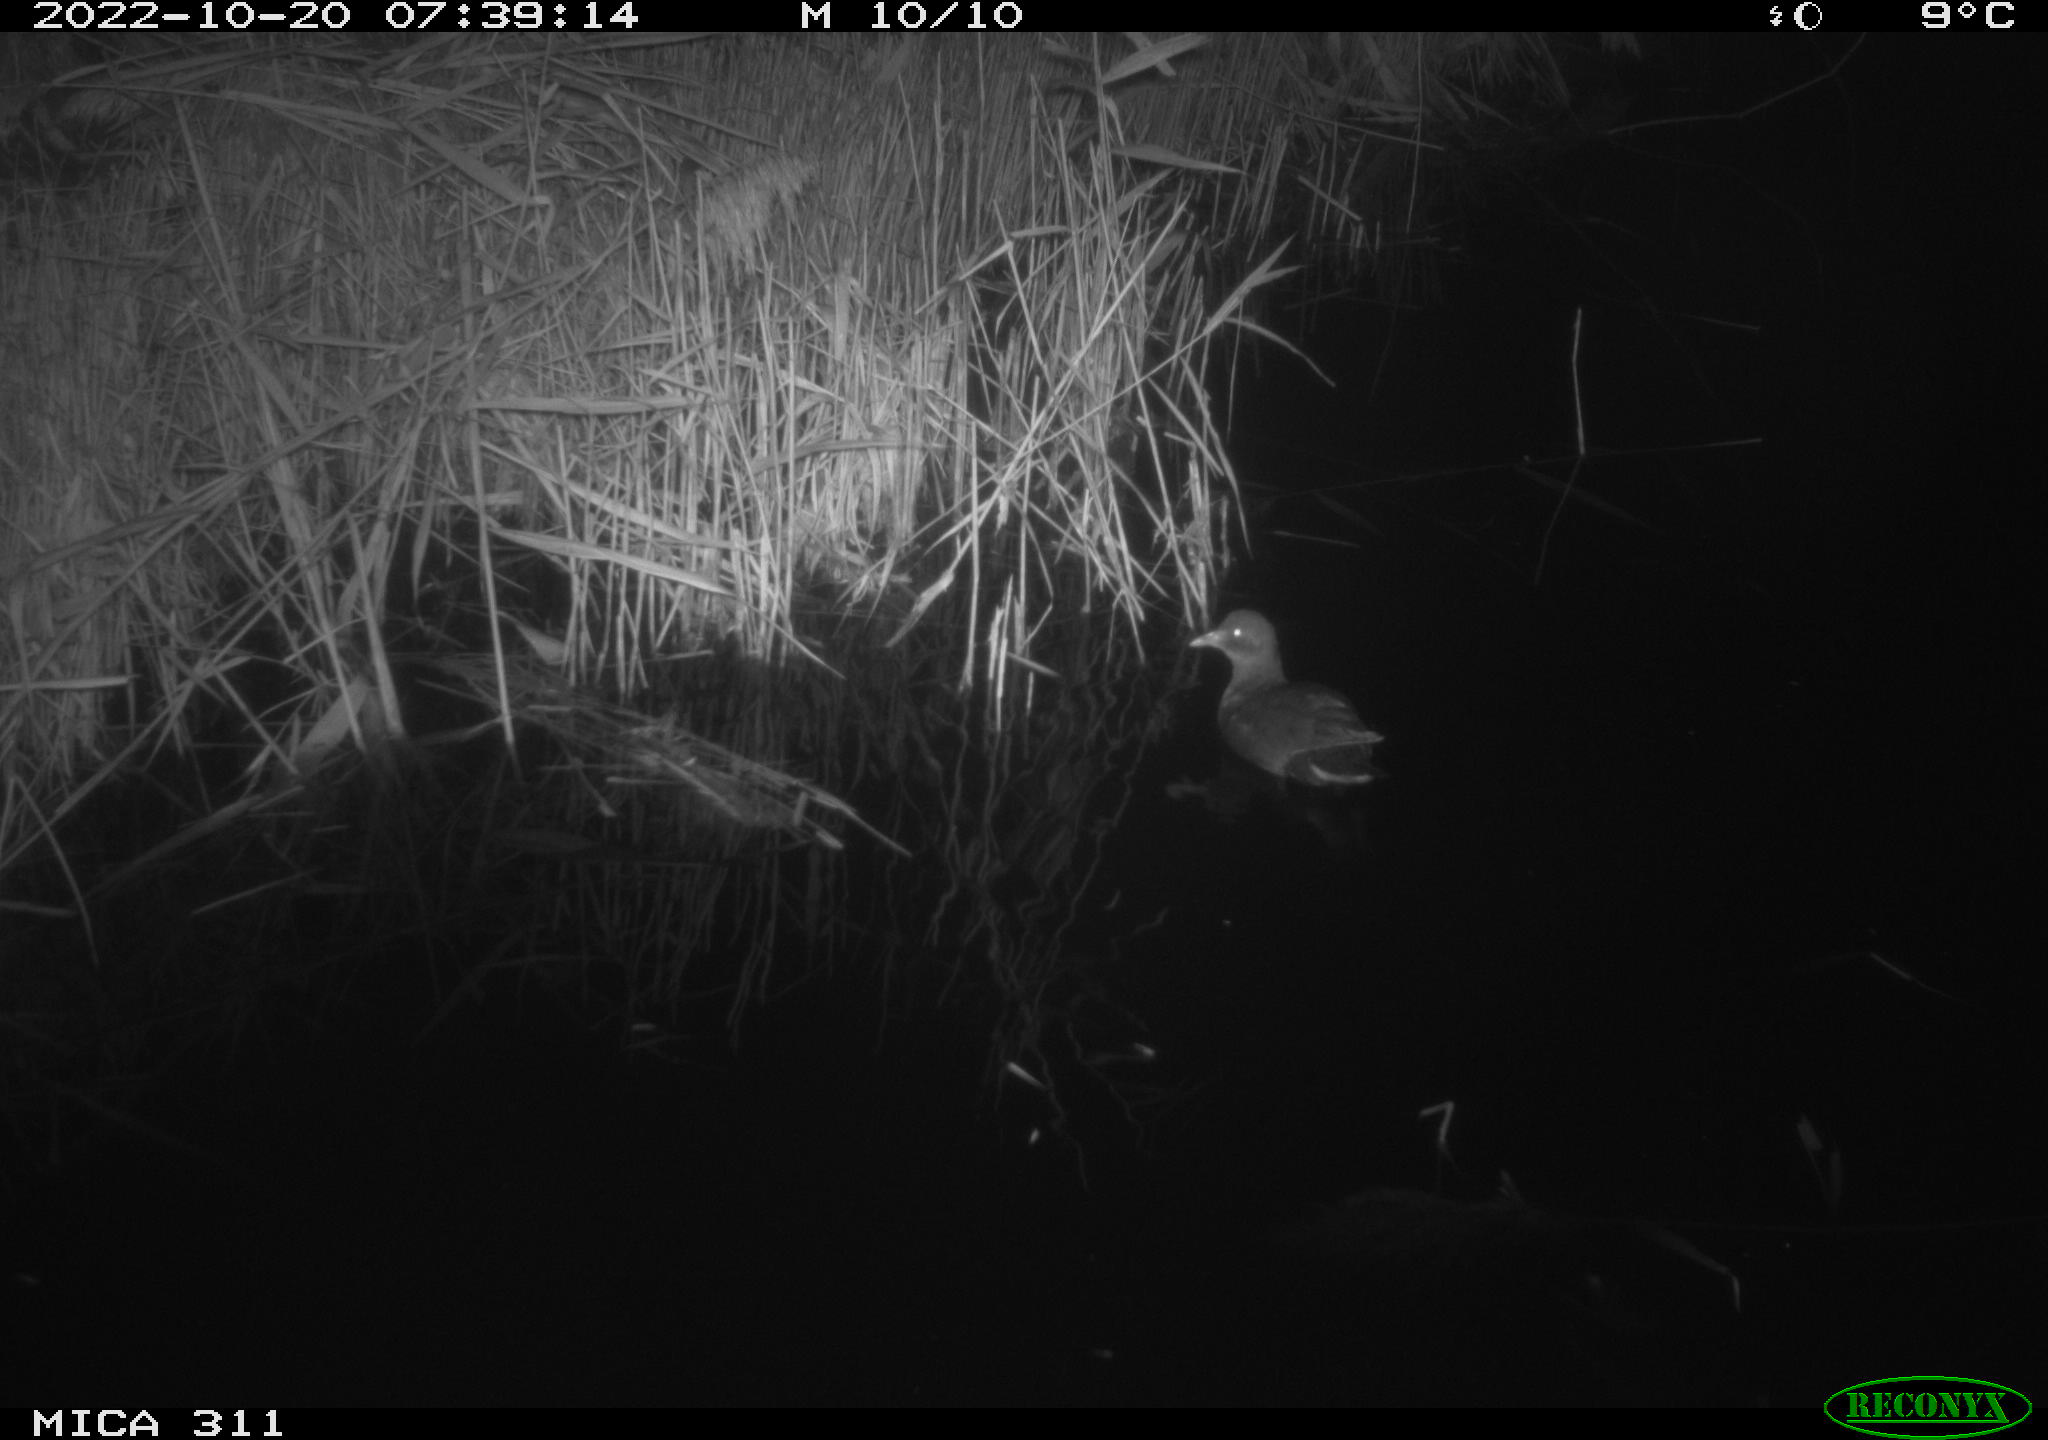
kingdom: Animalia
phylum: Chordata
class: Aves
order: Gruiformes
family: Rallidae
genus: Gallinula
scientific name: Gallinula chloropus
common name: Common moorhen
